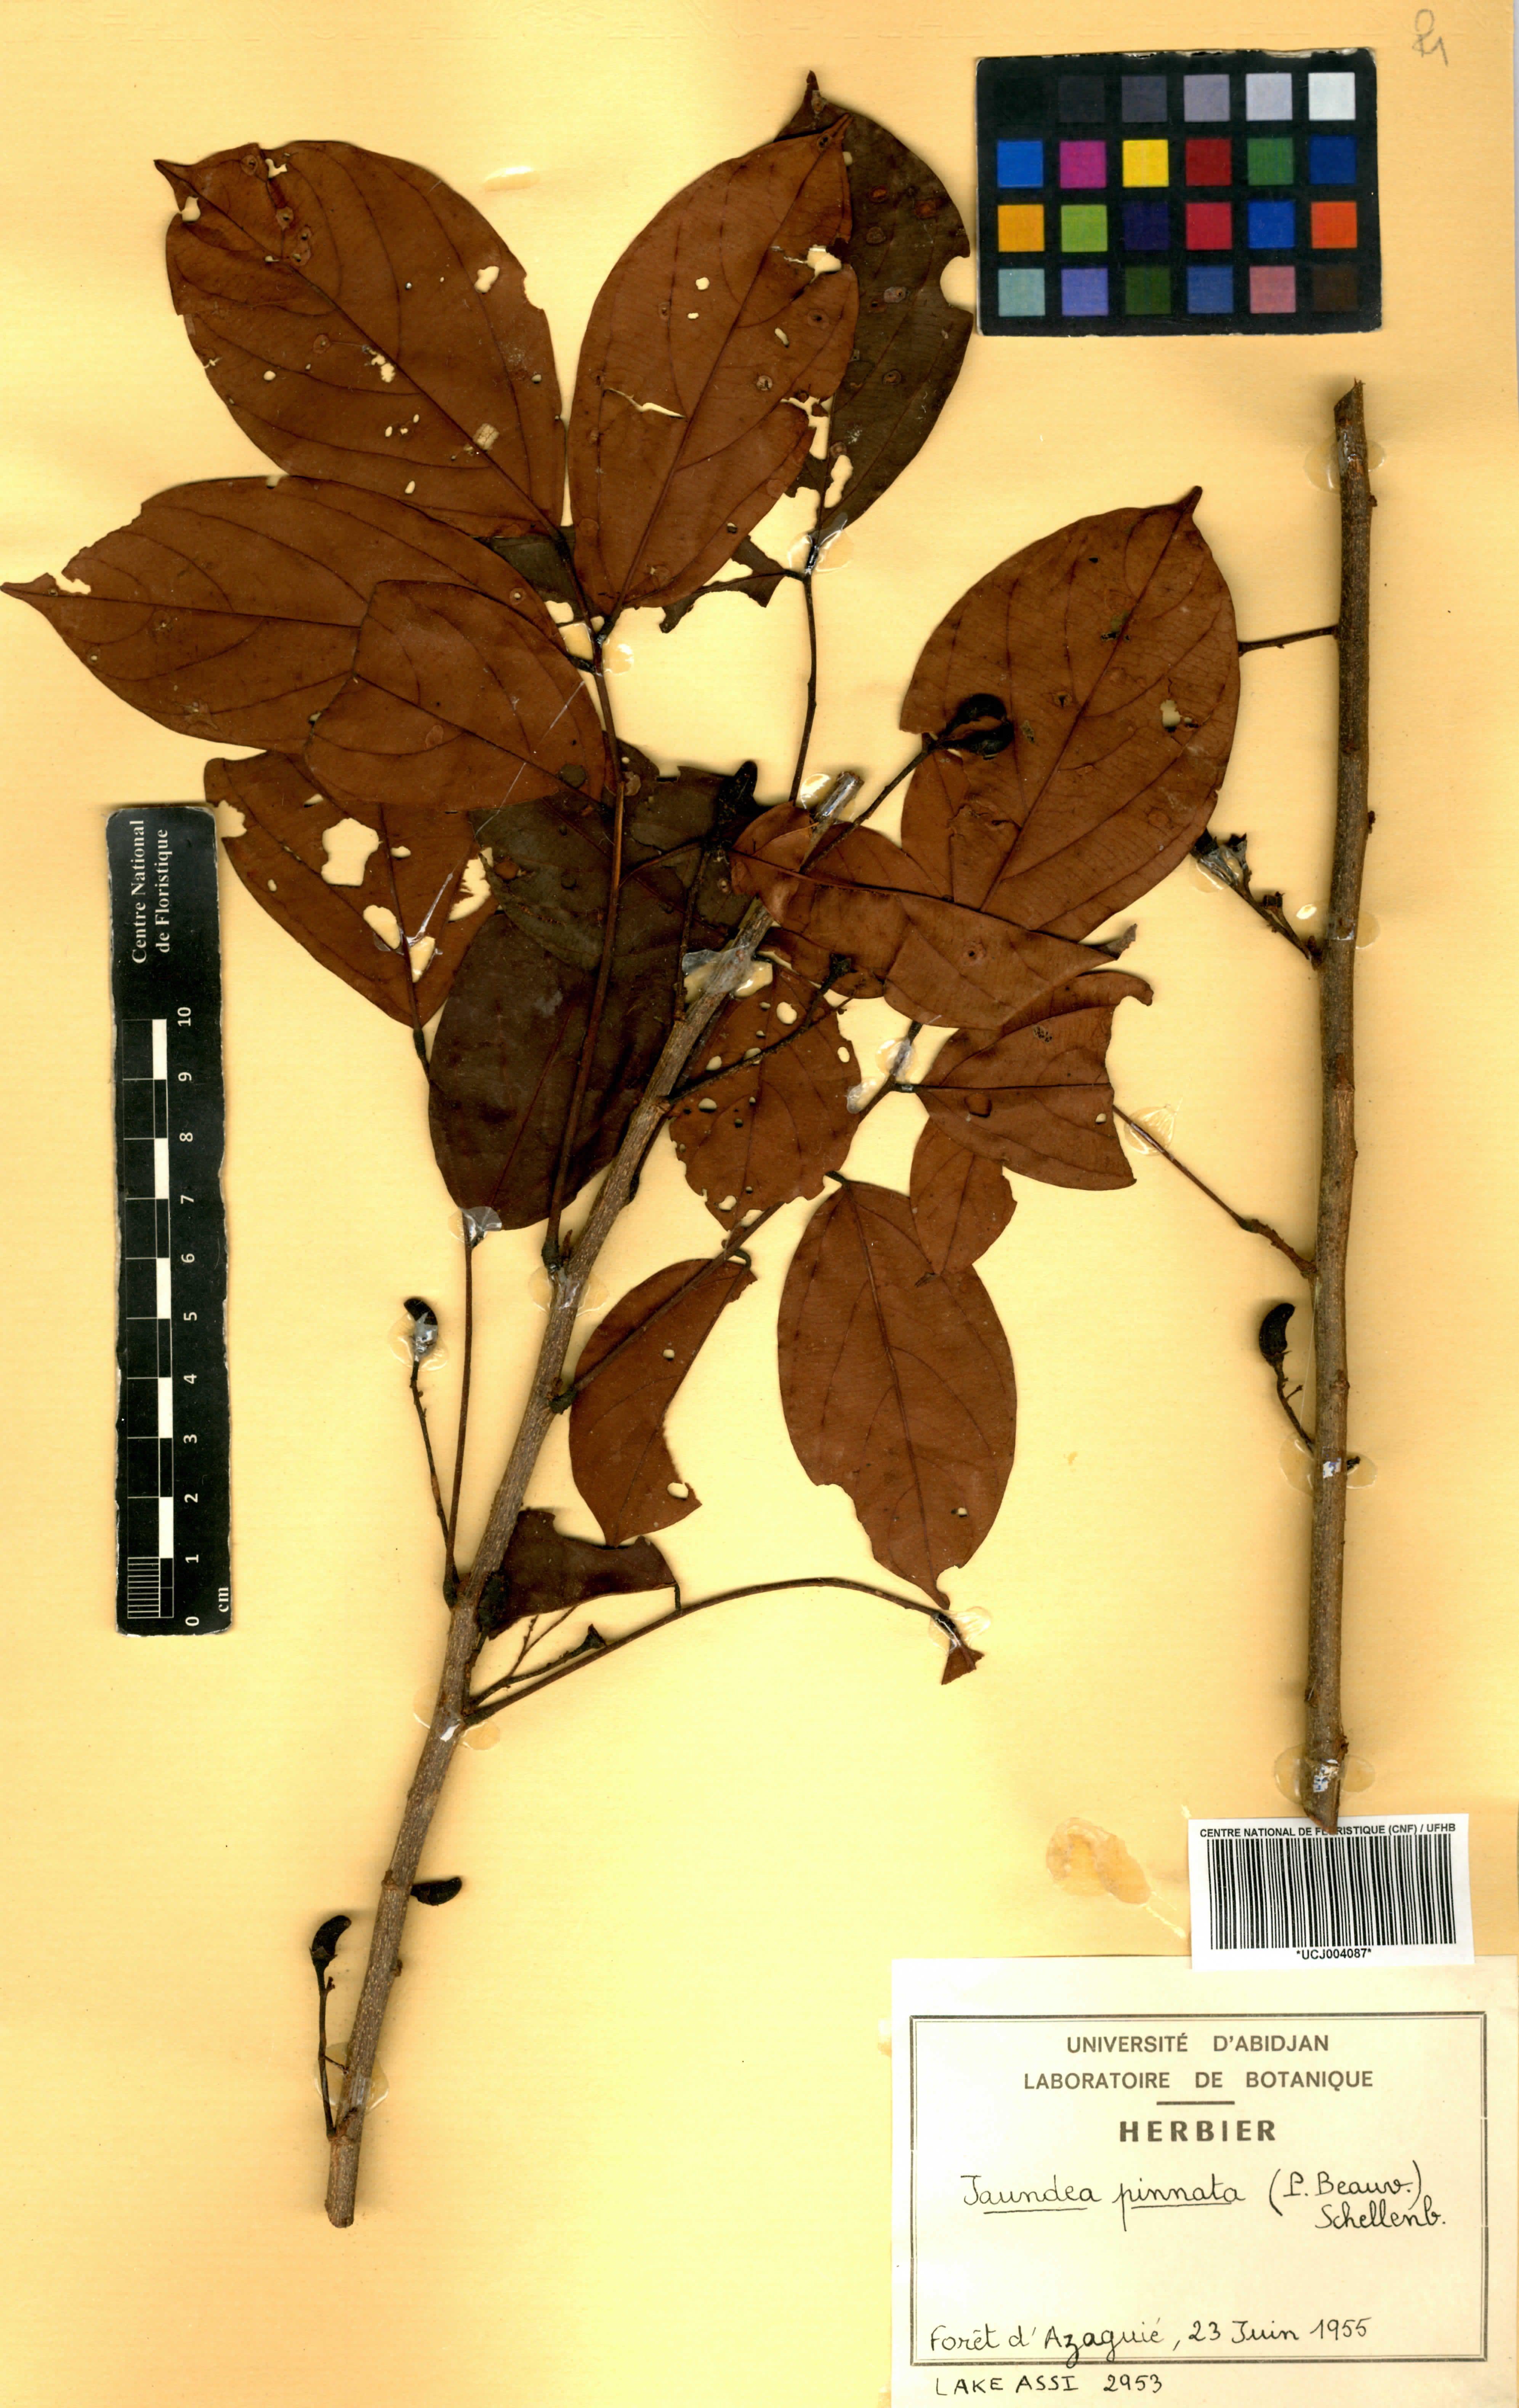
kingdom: Plantae
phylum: Tracheophyta
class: Magnoliopsida
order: Oxalidales
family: Connaraceae
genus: Rourea
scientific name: Rourea thomsonii
